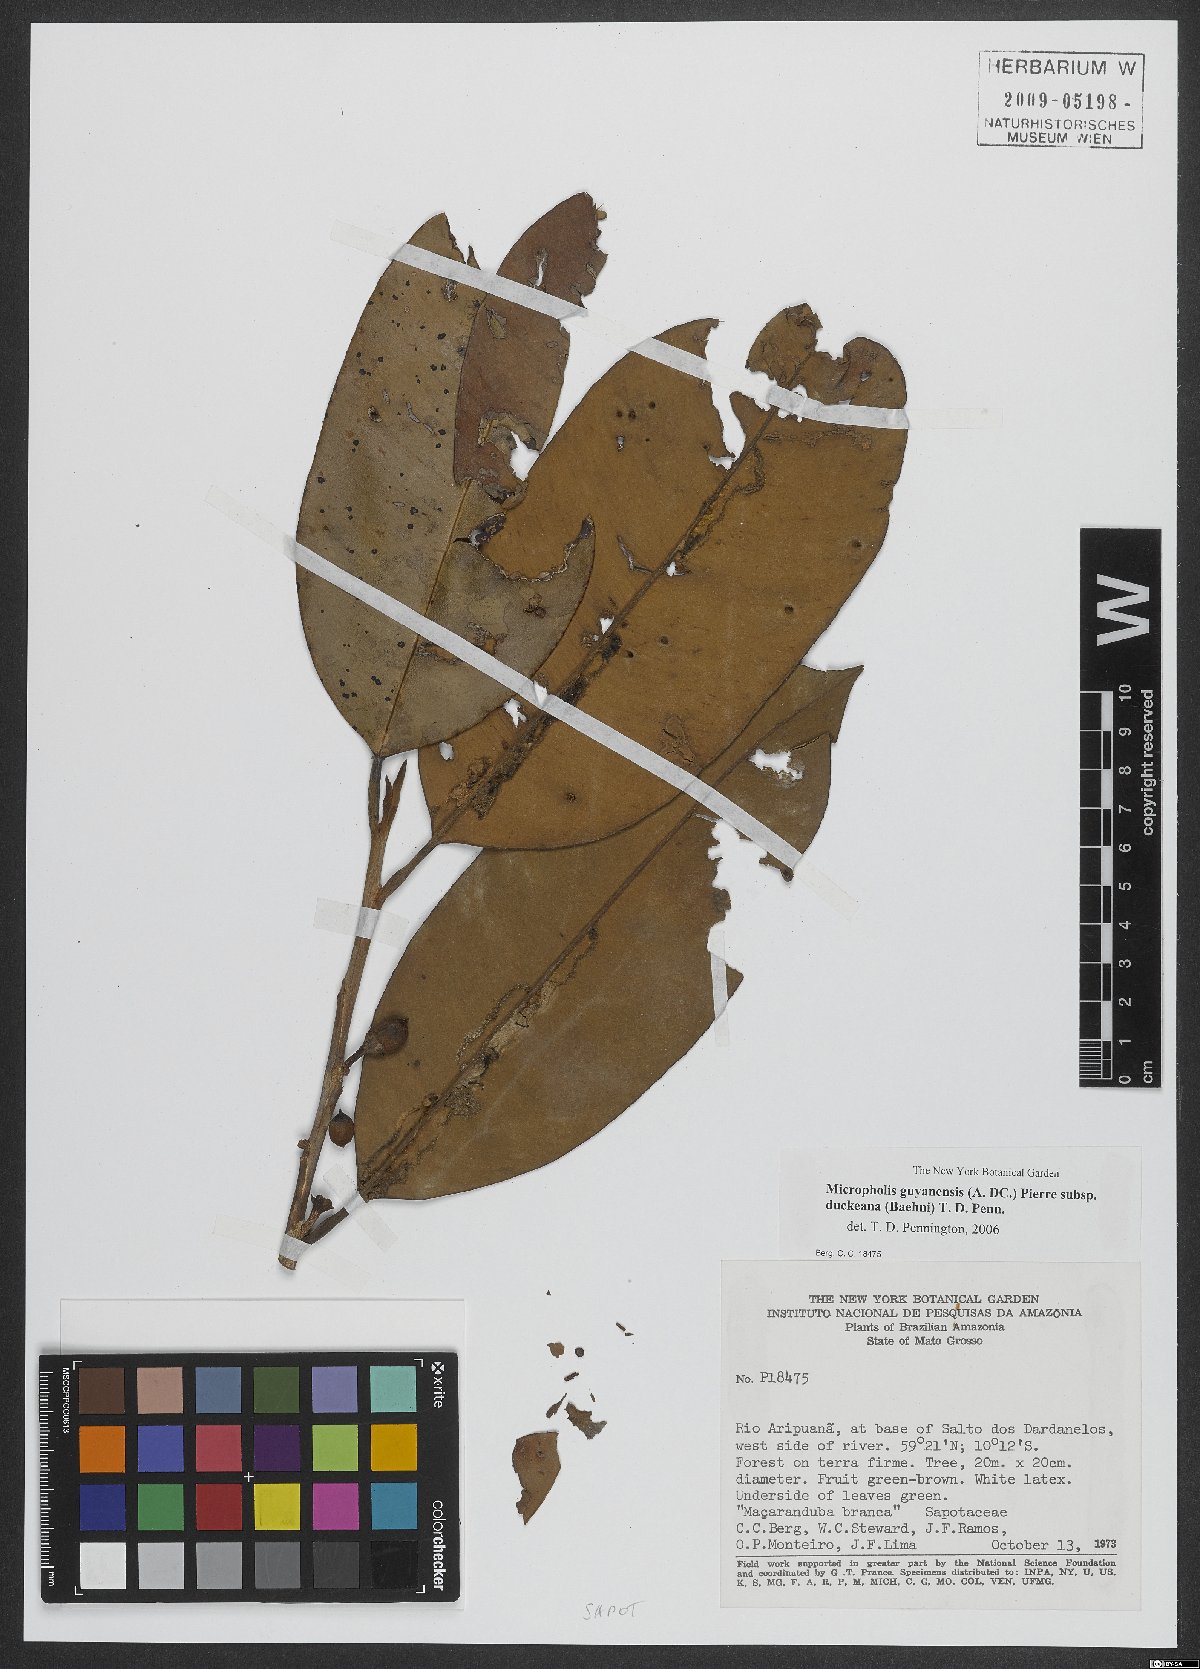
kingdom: Plantae
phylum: Tracheophyta
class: Magnoliopsida
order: Ericales
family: Sapotaceae
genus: Micropholis
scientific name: Micropholis guyanensis
